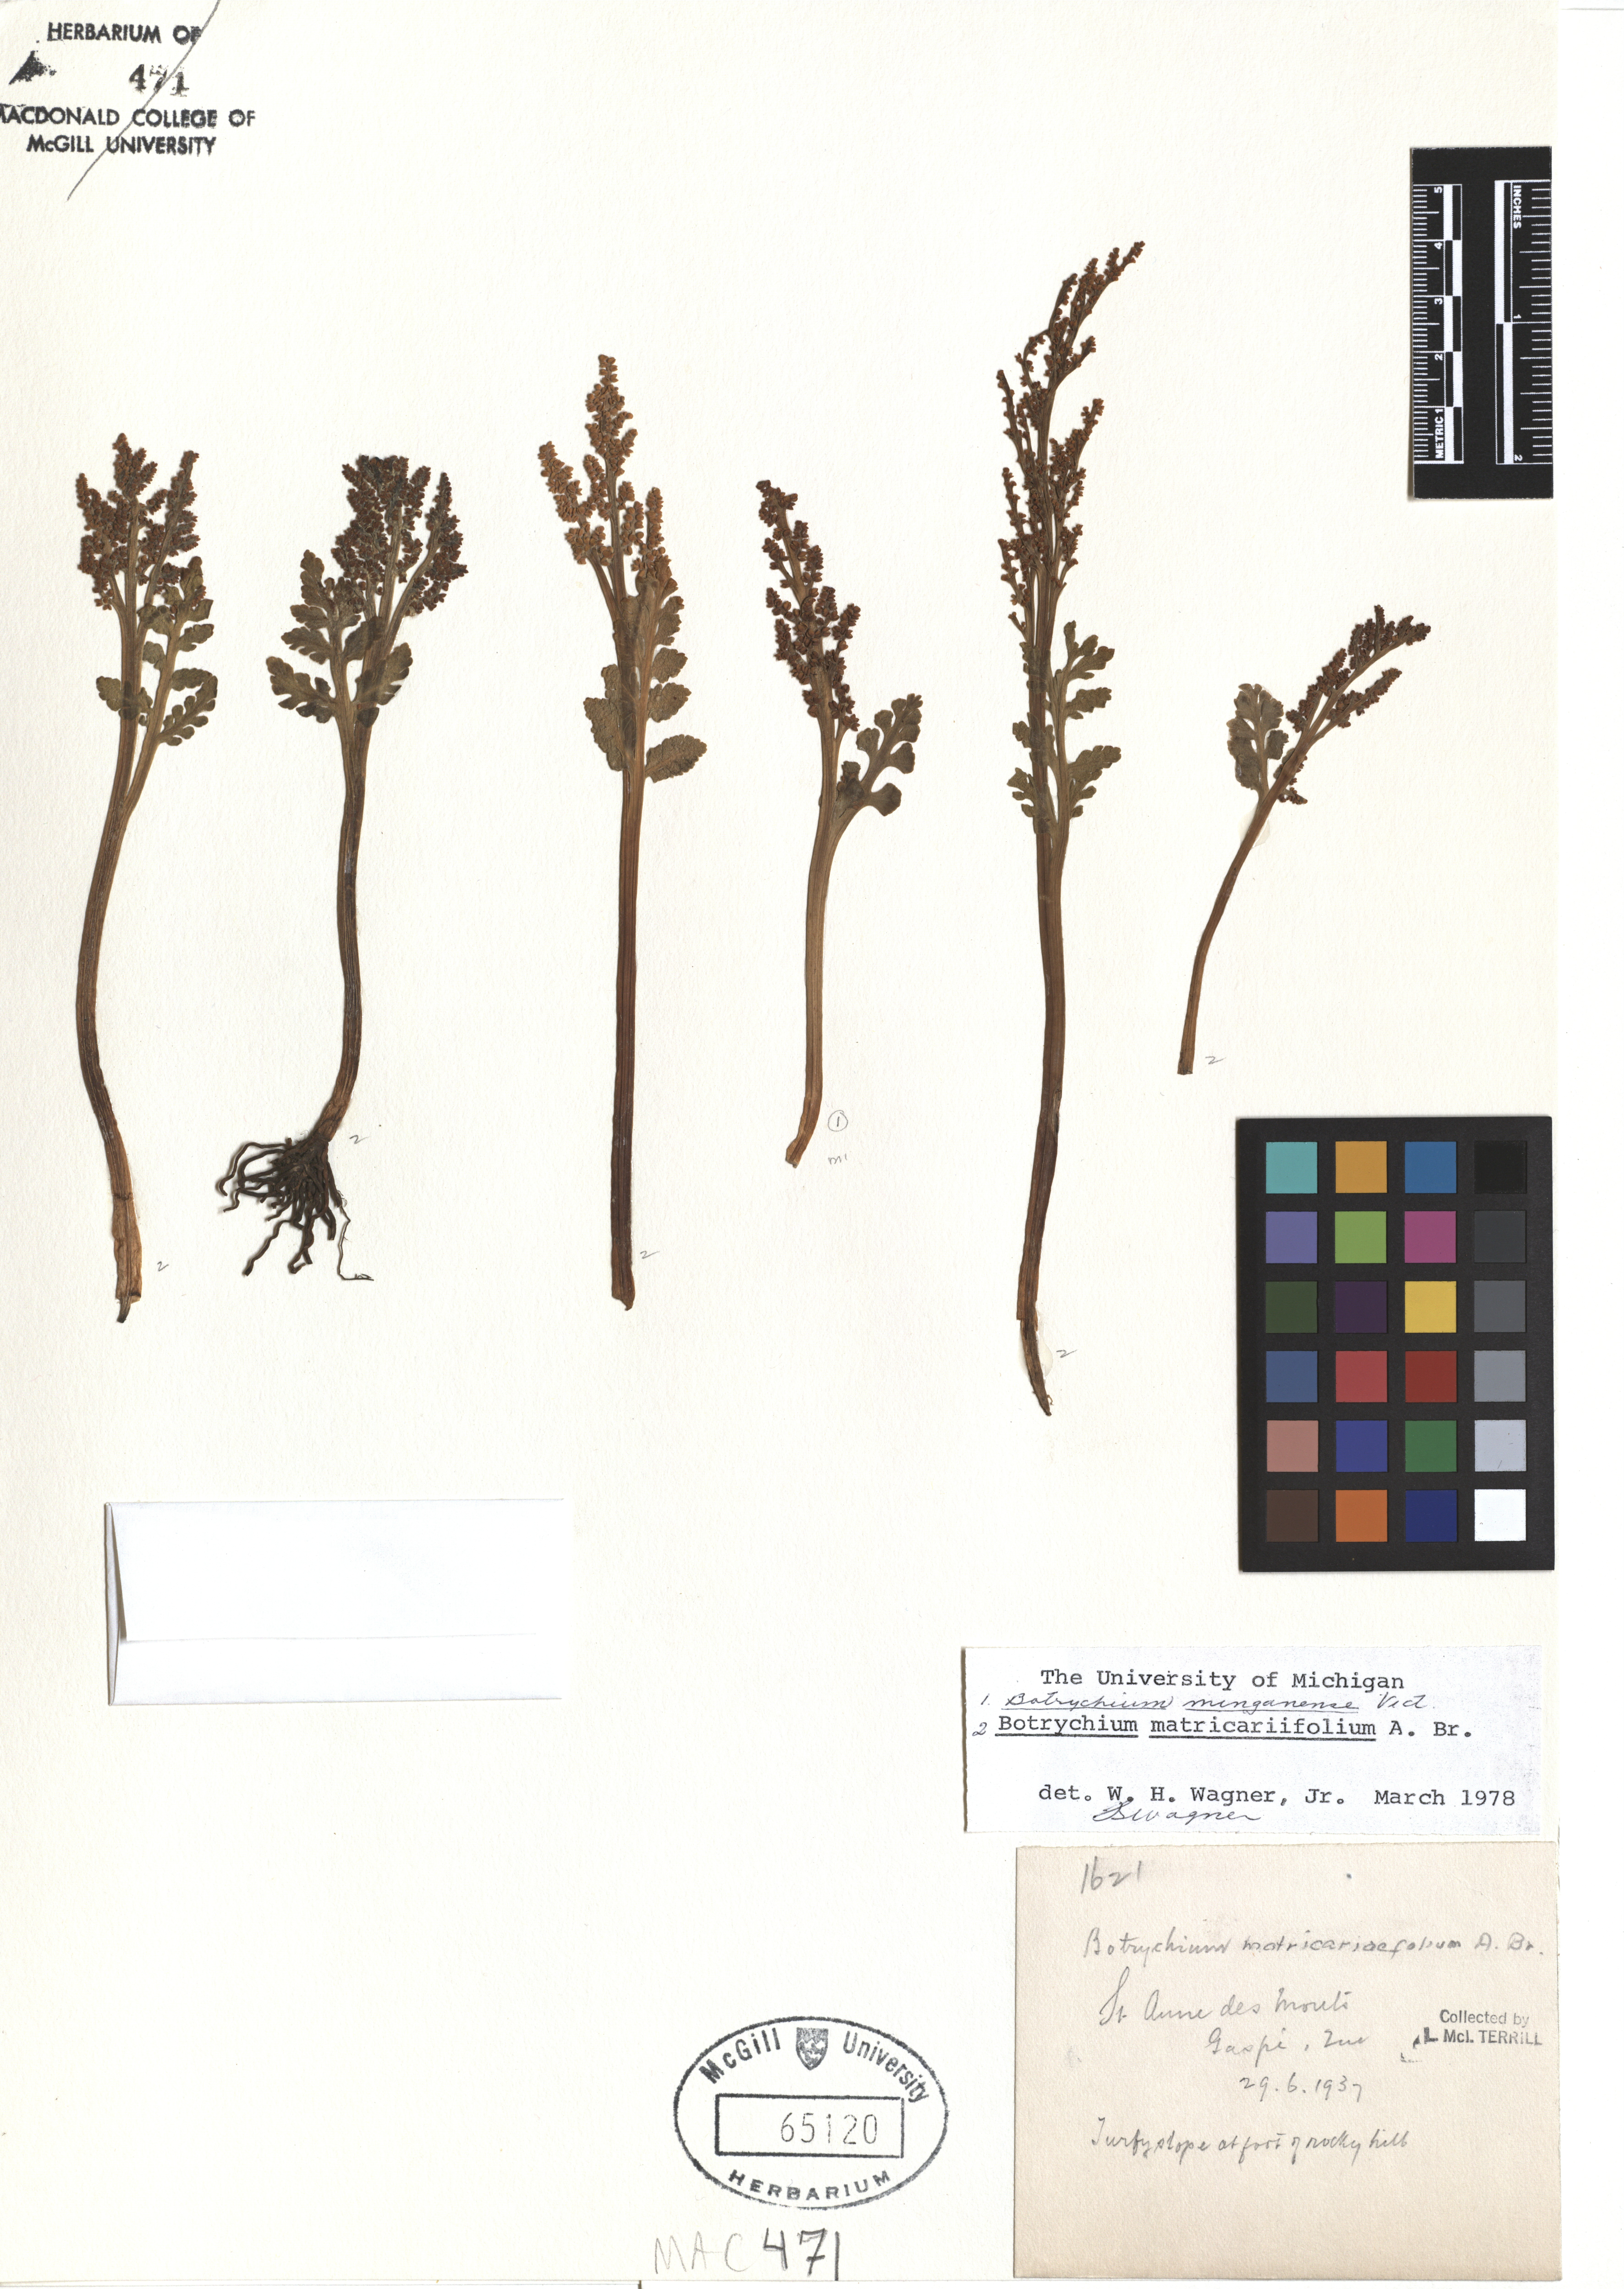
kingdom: Plantae
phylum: Tracheophyta
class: Polypodiopsida
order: Ophioglossales
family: Ophioglossaceae
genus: Botrychium
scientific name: Botrychium matricariifolium
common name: Branched moonwort
